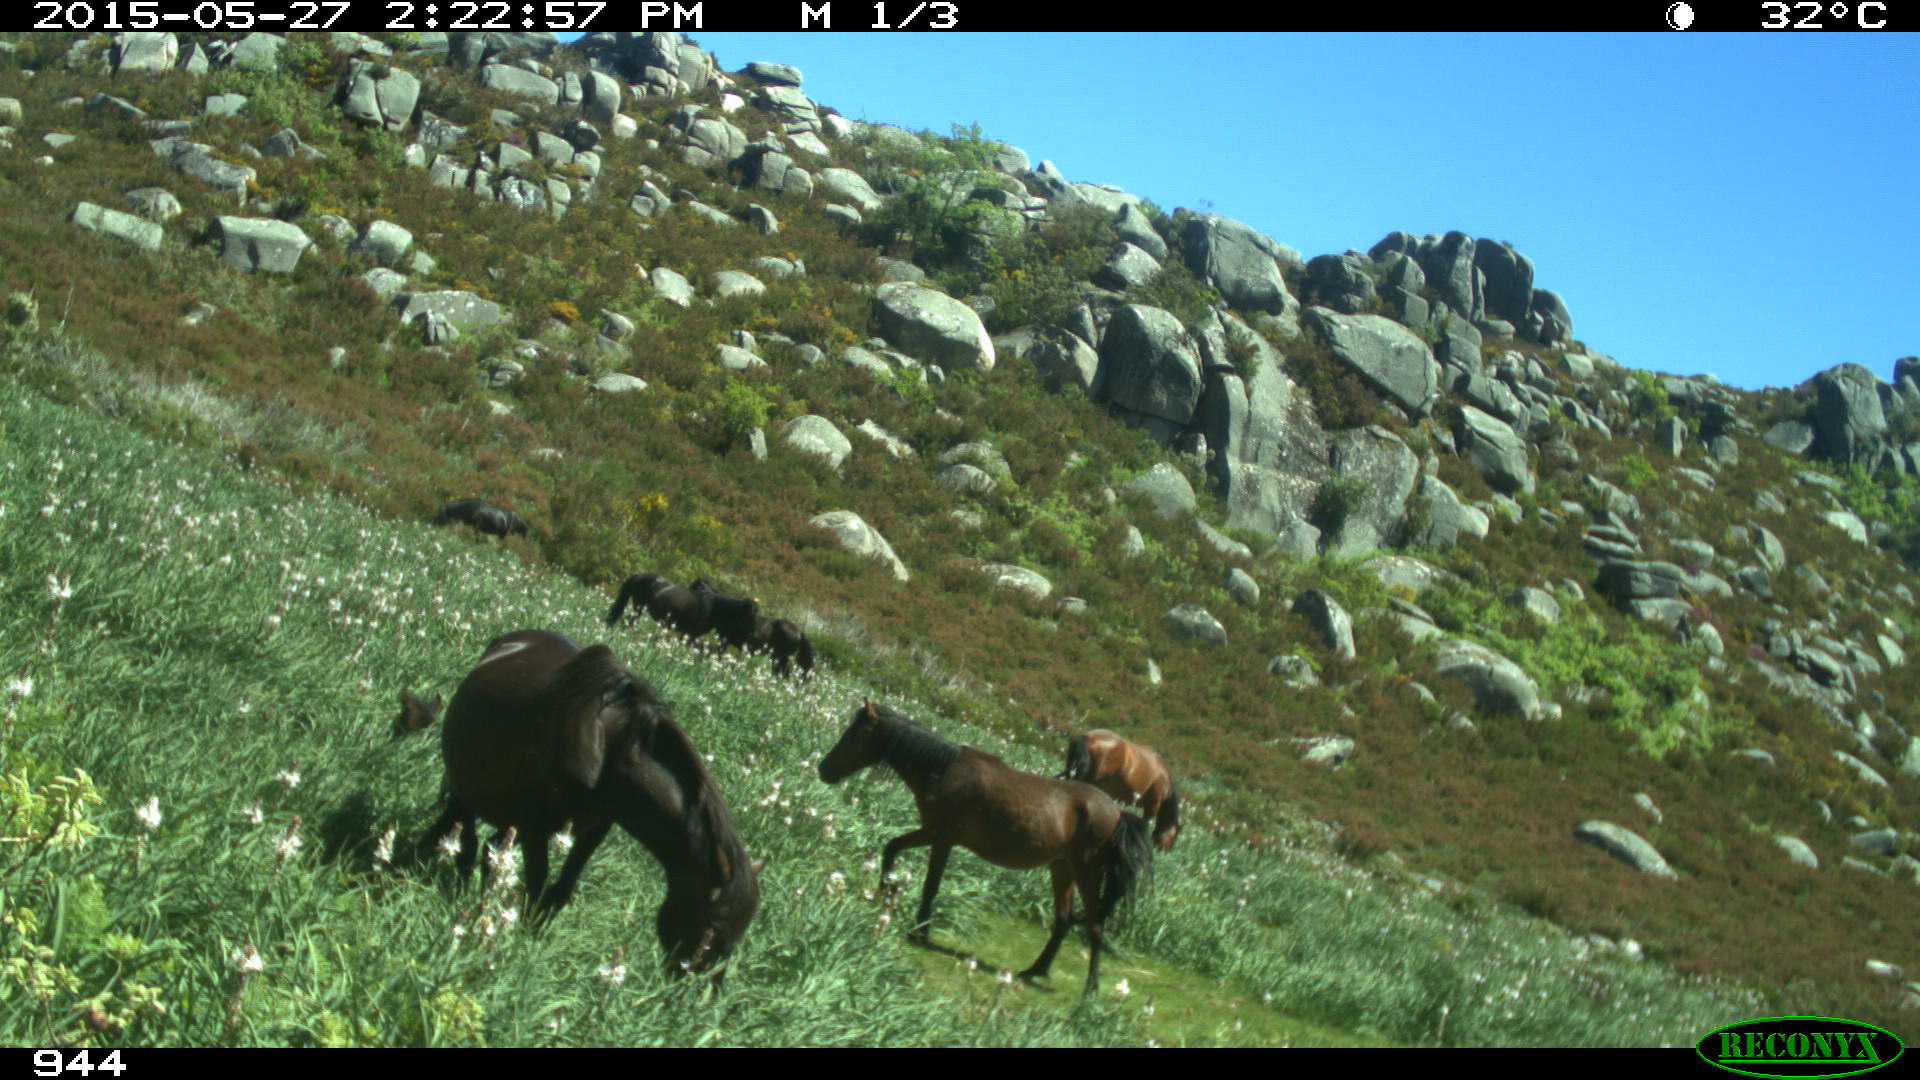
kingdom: Animalia
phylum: Chordata
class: Mammalia
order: Perissodactyla
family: Equidae
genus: Equus
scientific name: Equus caballus
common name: Horse
